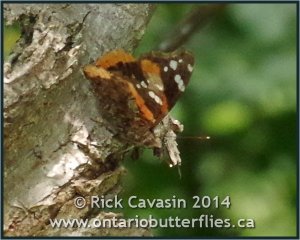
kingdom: Animalia
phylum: Arthropoda
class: Insecta
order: Lepidoptera
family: Nymphalidae
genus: Vanessa
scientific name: Vanessa atalanta
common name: Red Admiral
